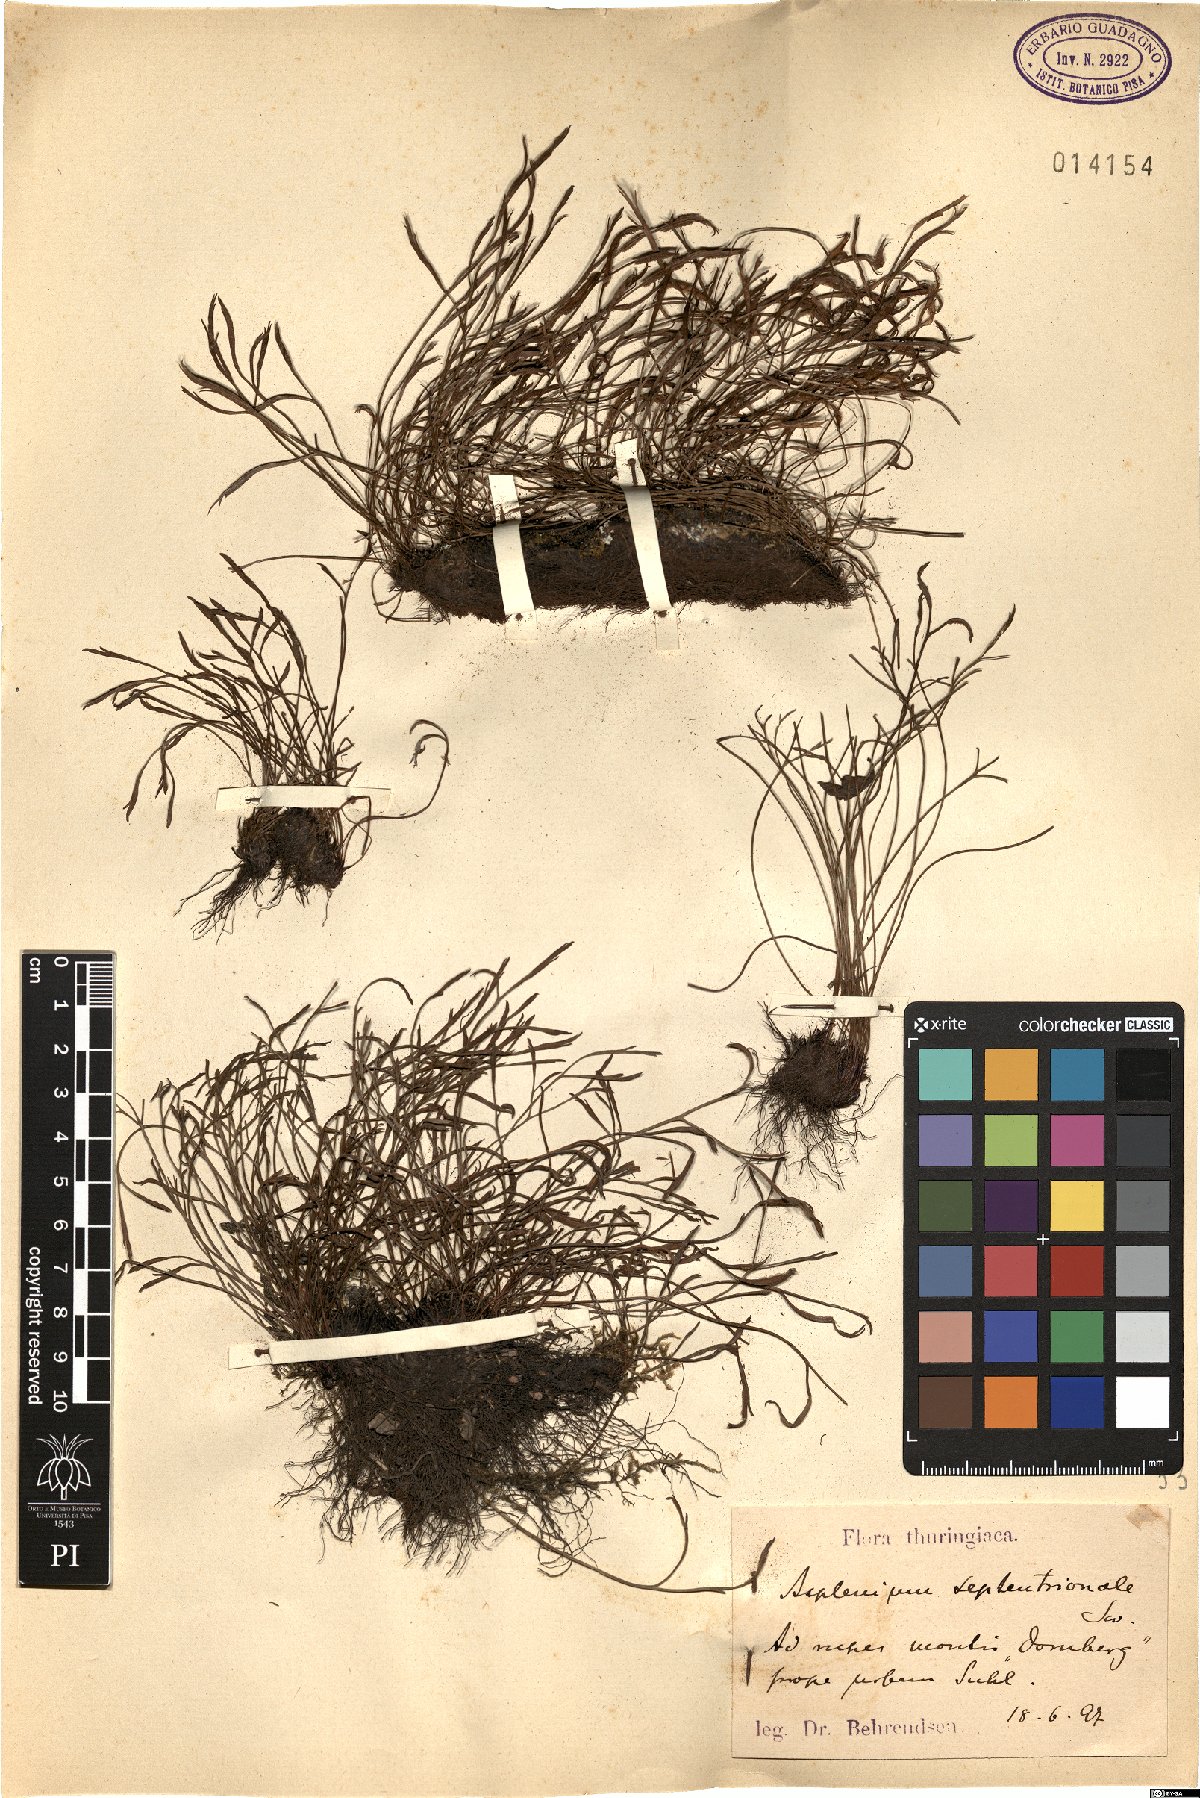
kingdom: Plantae
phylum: Tracheophyta
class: Polypodiopsida
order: Polypodiales
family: Aspleniaceae
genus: Asplenium
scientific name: Asplenium septentrionale
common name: Forked spleenwort
